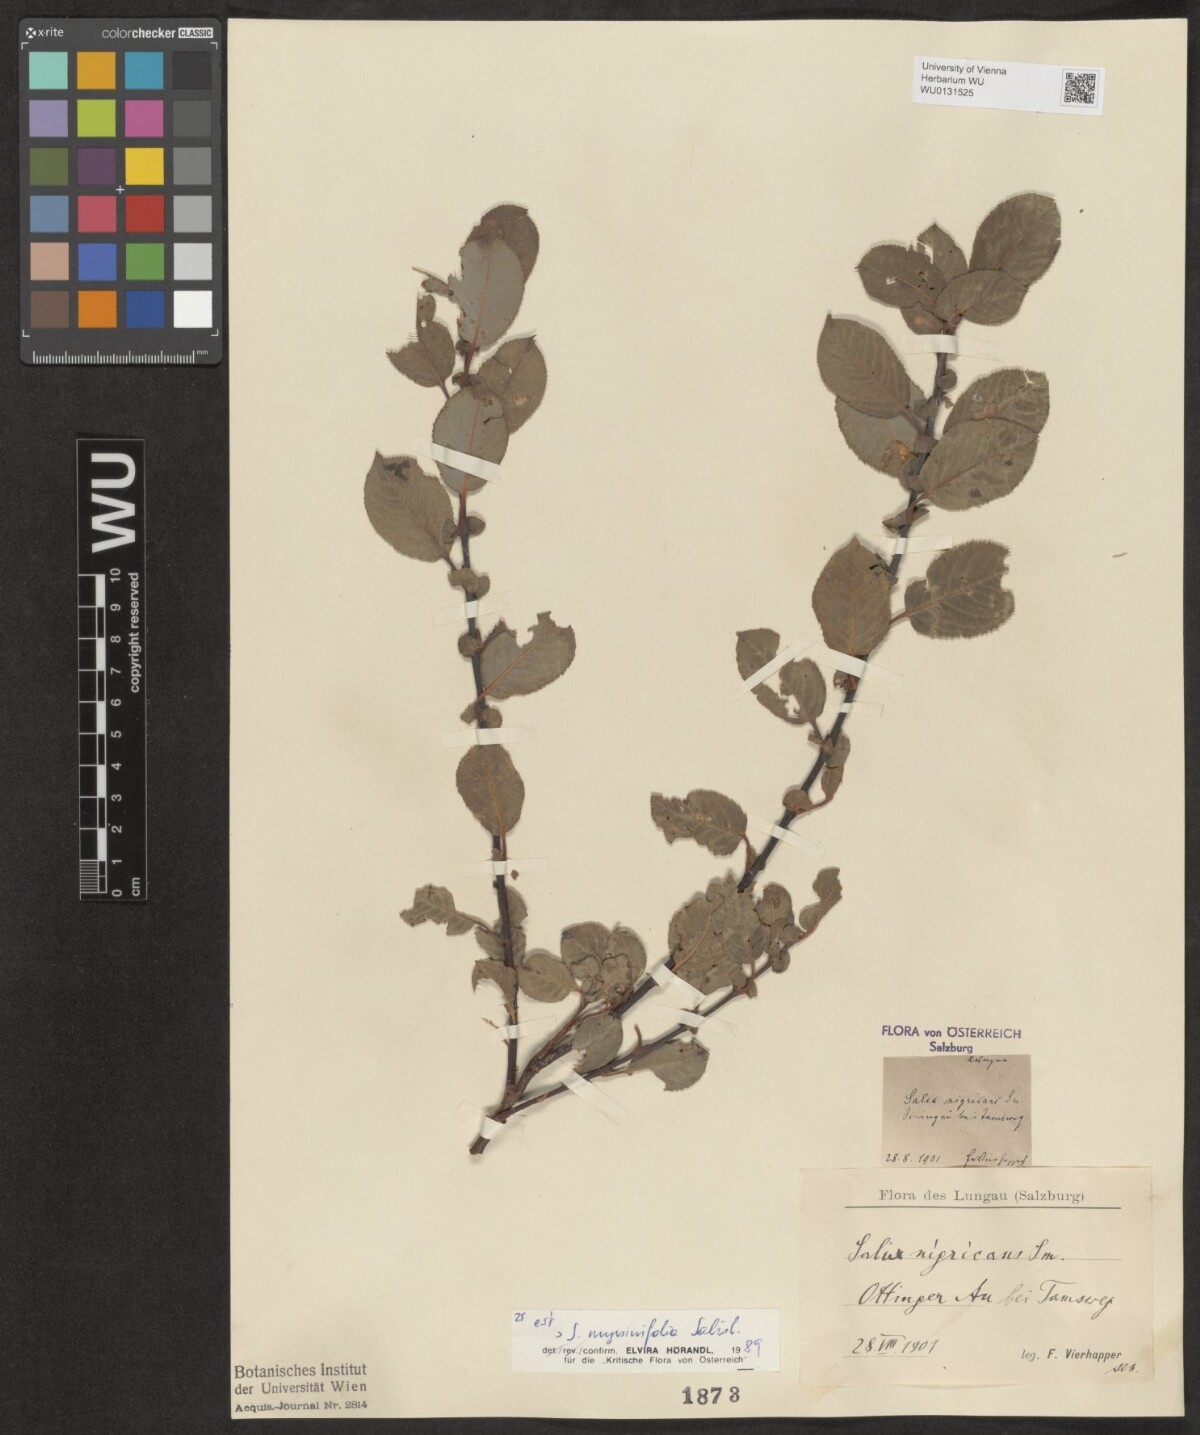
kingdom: Plantae
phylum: Tracheophyta
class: Magnoliopsida
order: Malpighiales
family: Salicaceae
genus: Salix
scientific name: Salix myrsinifolia
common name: Dark-leaved willow
